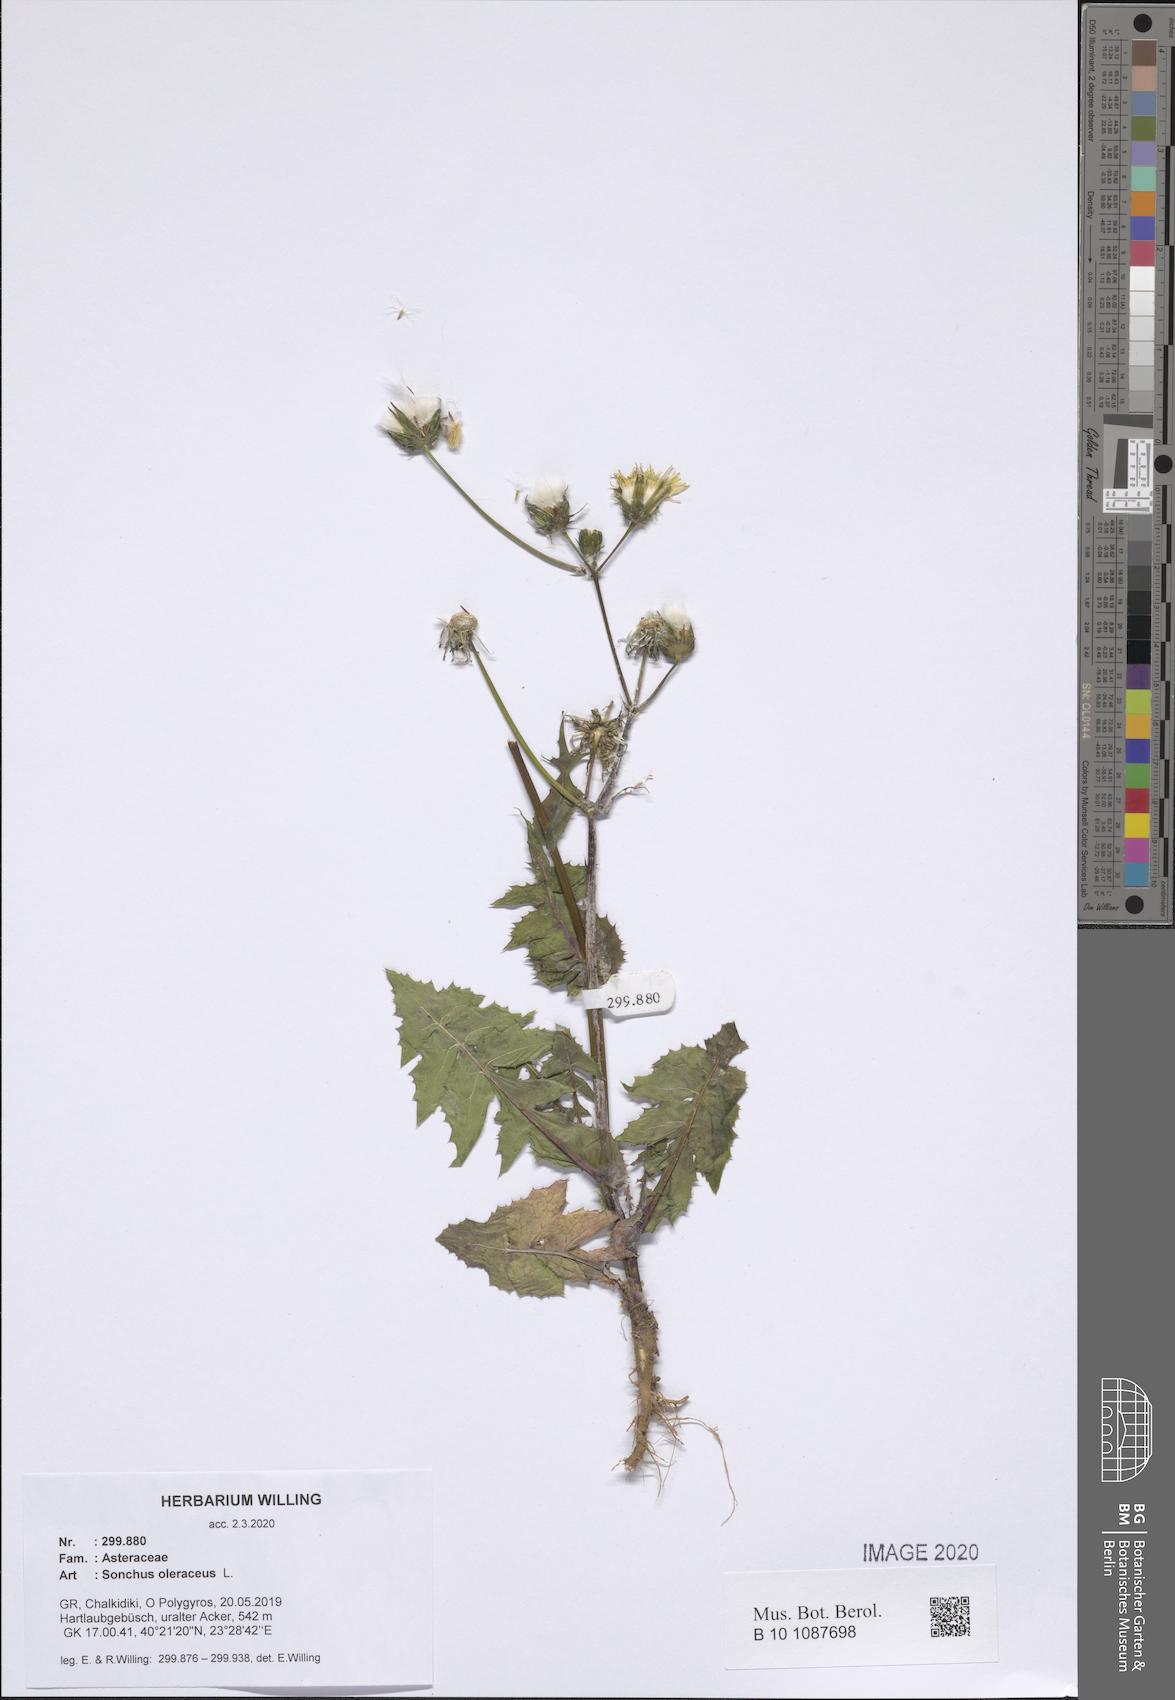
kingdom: Plantae
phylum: Tracheophyta
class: Magnoliopsida
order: Asterales
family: Asteraceae
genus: Sonchus
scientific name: Sonchus oleraceus
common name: Common sowthistle
